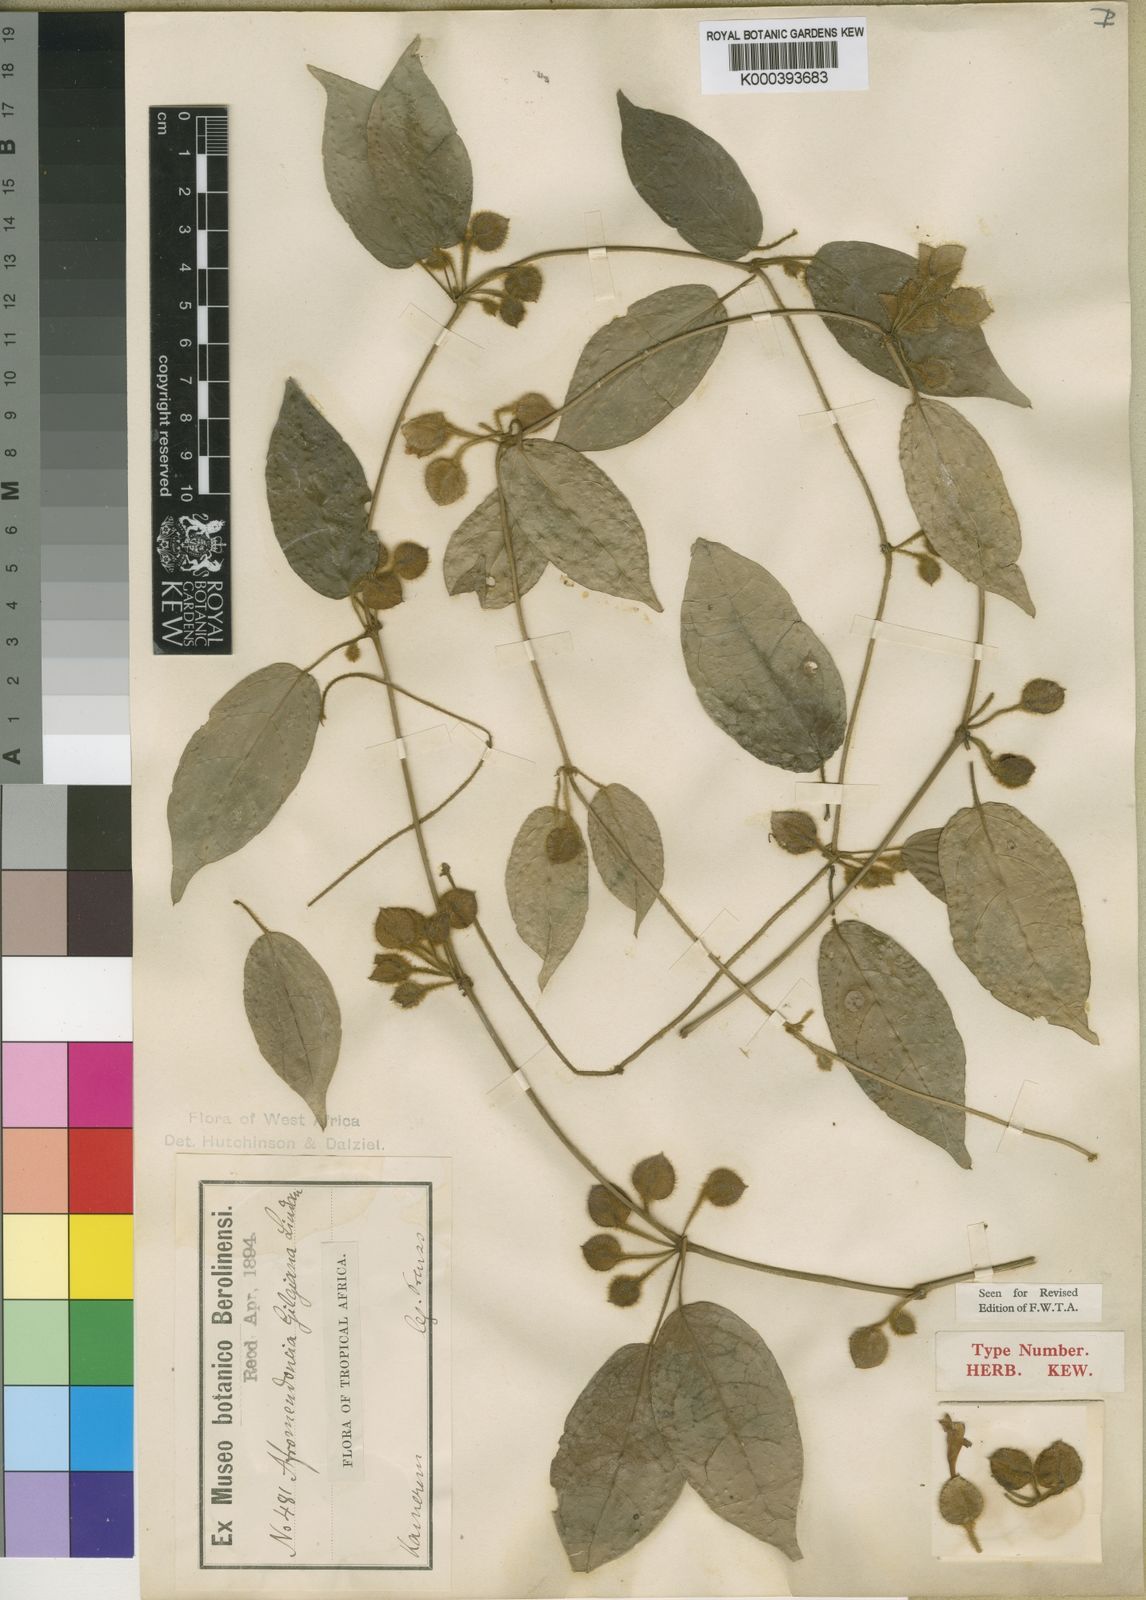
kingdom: Plantae
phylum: Tracheophyta
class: Magnoliopsida
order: Lamiales
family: Acanthaceae
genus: Mendoncia
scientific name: Mendoncia gilgiana
